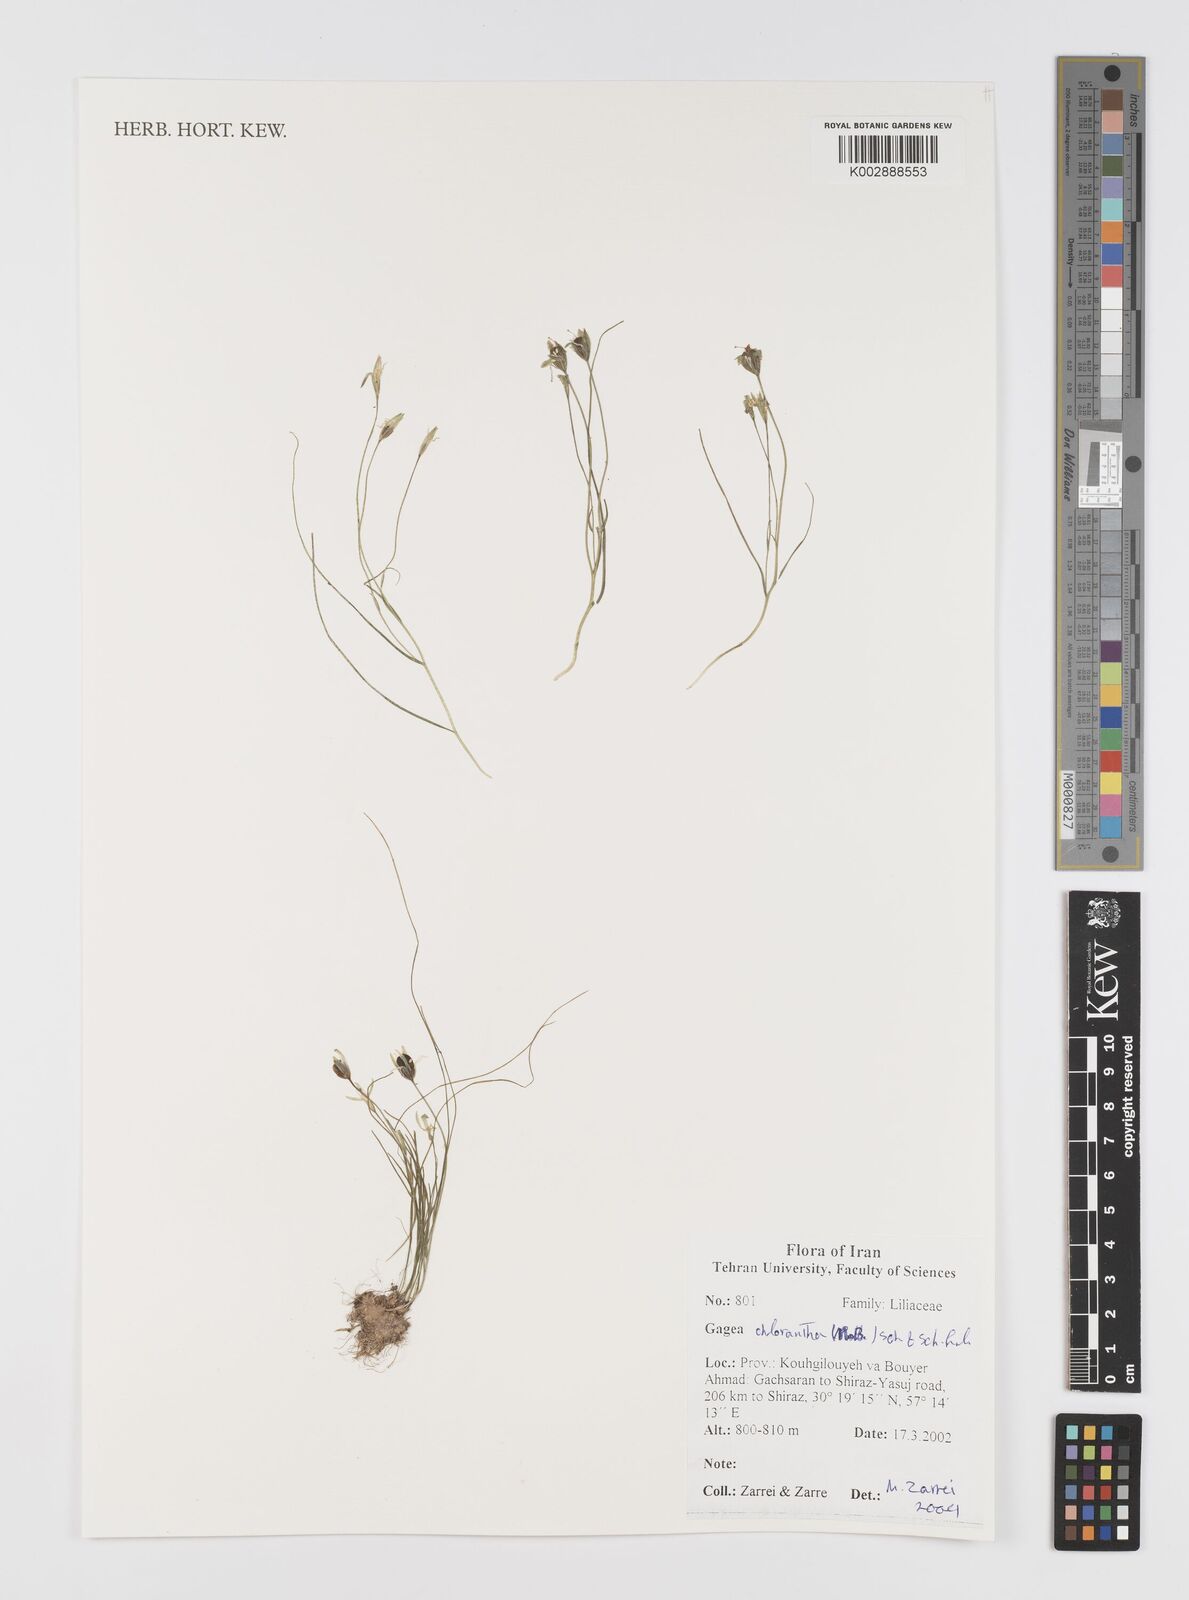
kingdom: Plantae
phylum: Tracheophyta
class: Liliopsida
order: Liliales
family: Liliaceae
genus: Gagea
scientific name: Gagea chlorantha
